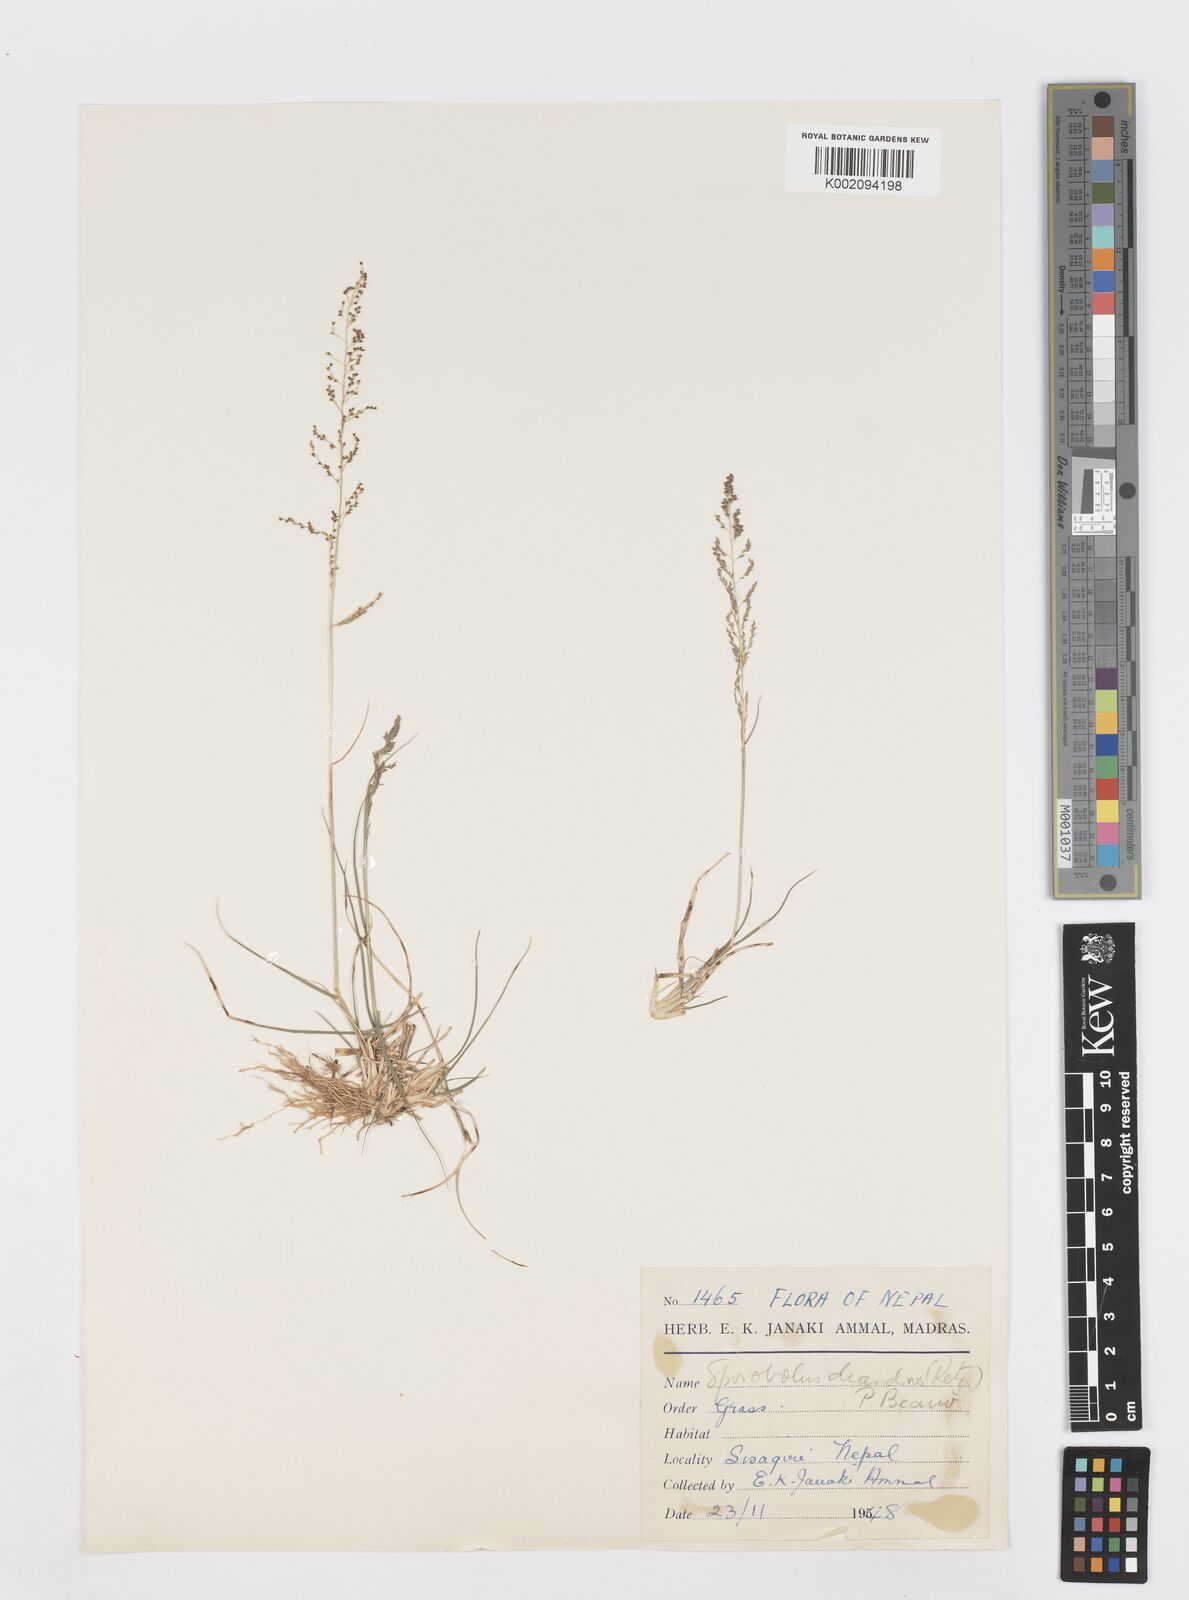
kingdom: Plantae
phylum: Tracheophyta
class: Liliopsida
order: Poales
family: Poaceae
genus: Sporobolus
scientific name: Sporobolus diandrus
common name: Tussock dropseed
